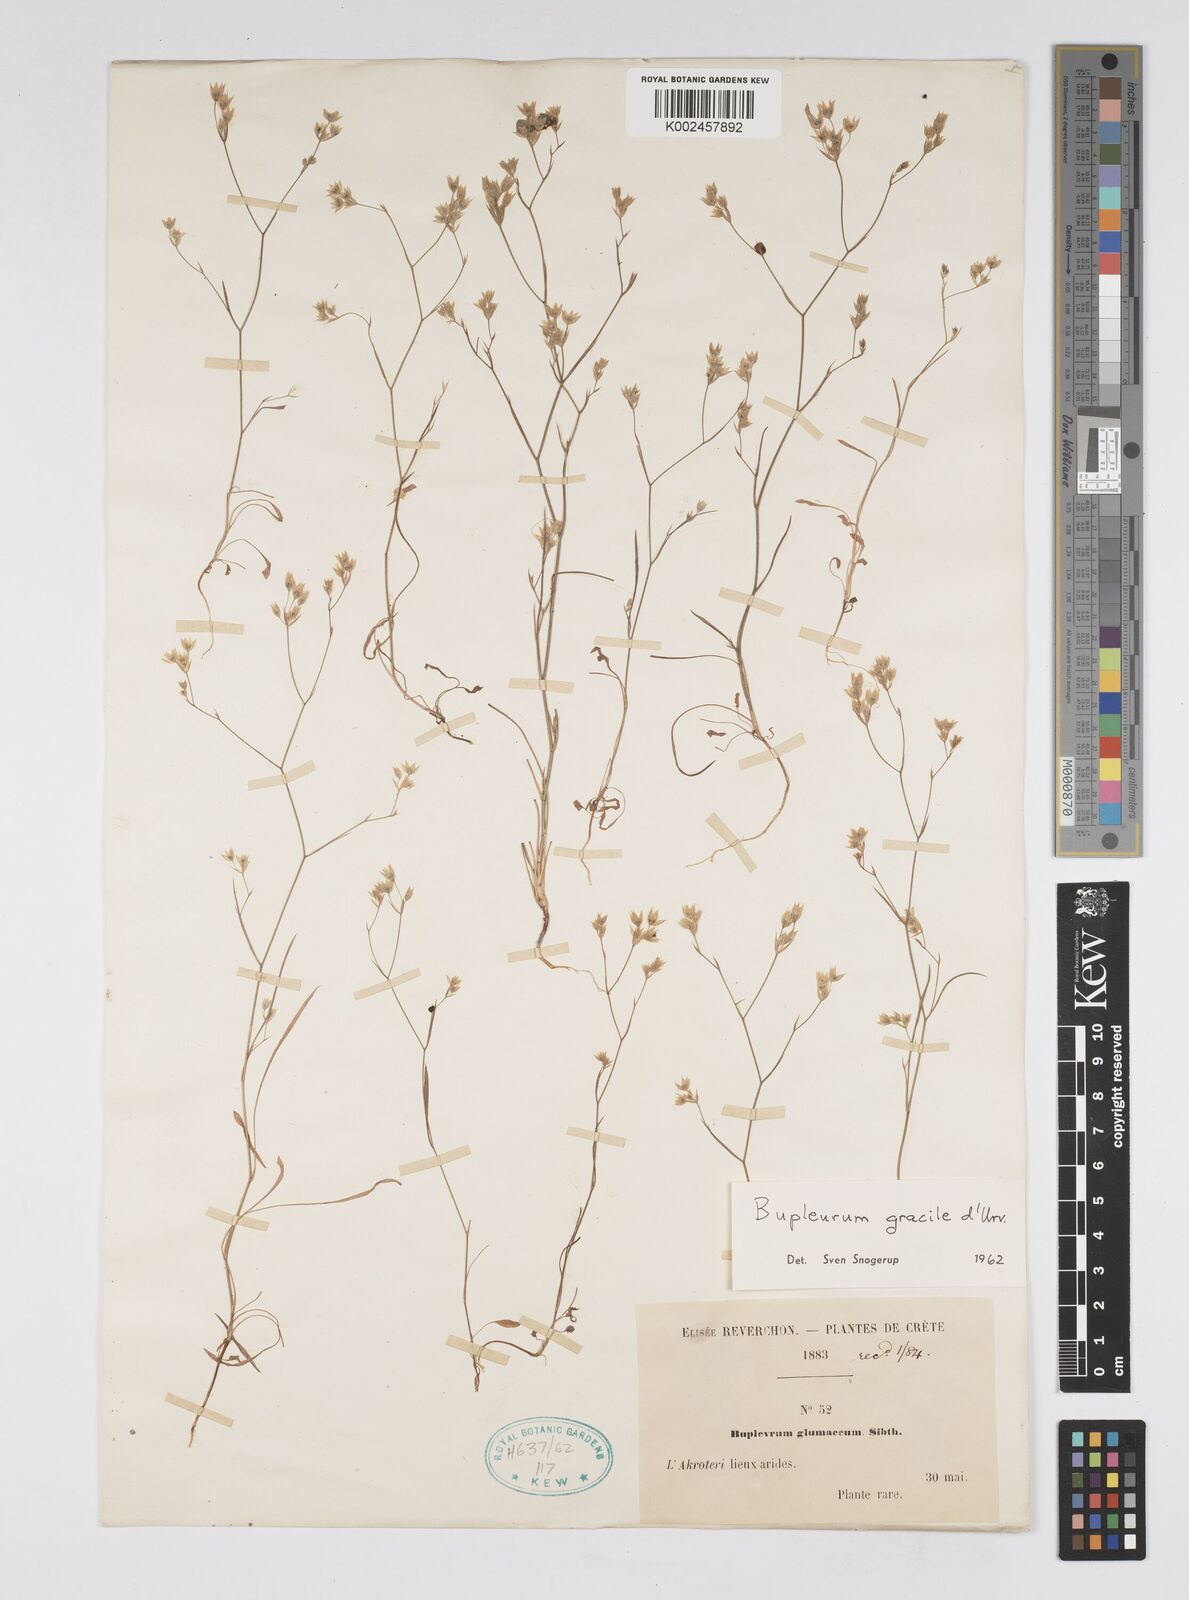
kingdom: Plantae
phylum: Tracheophyta
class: Magnoliopsida
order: Apiales
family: Apiaceae
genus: Bupleurum
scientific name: Bupleurum gracile
